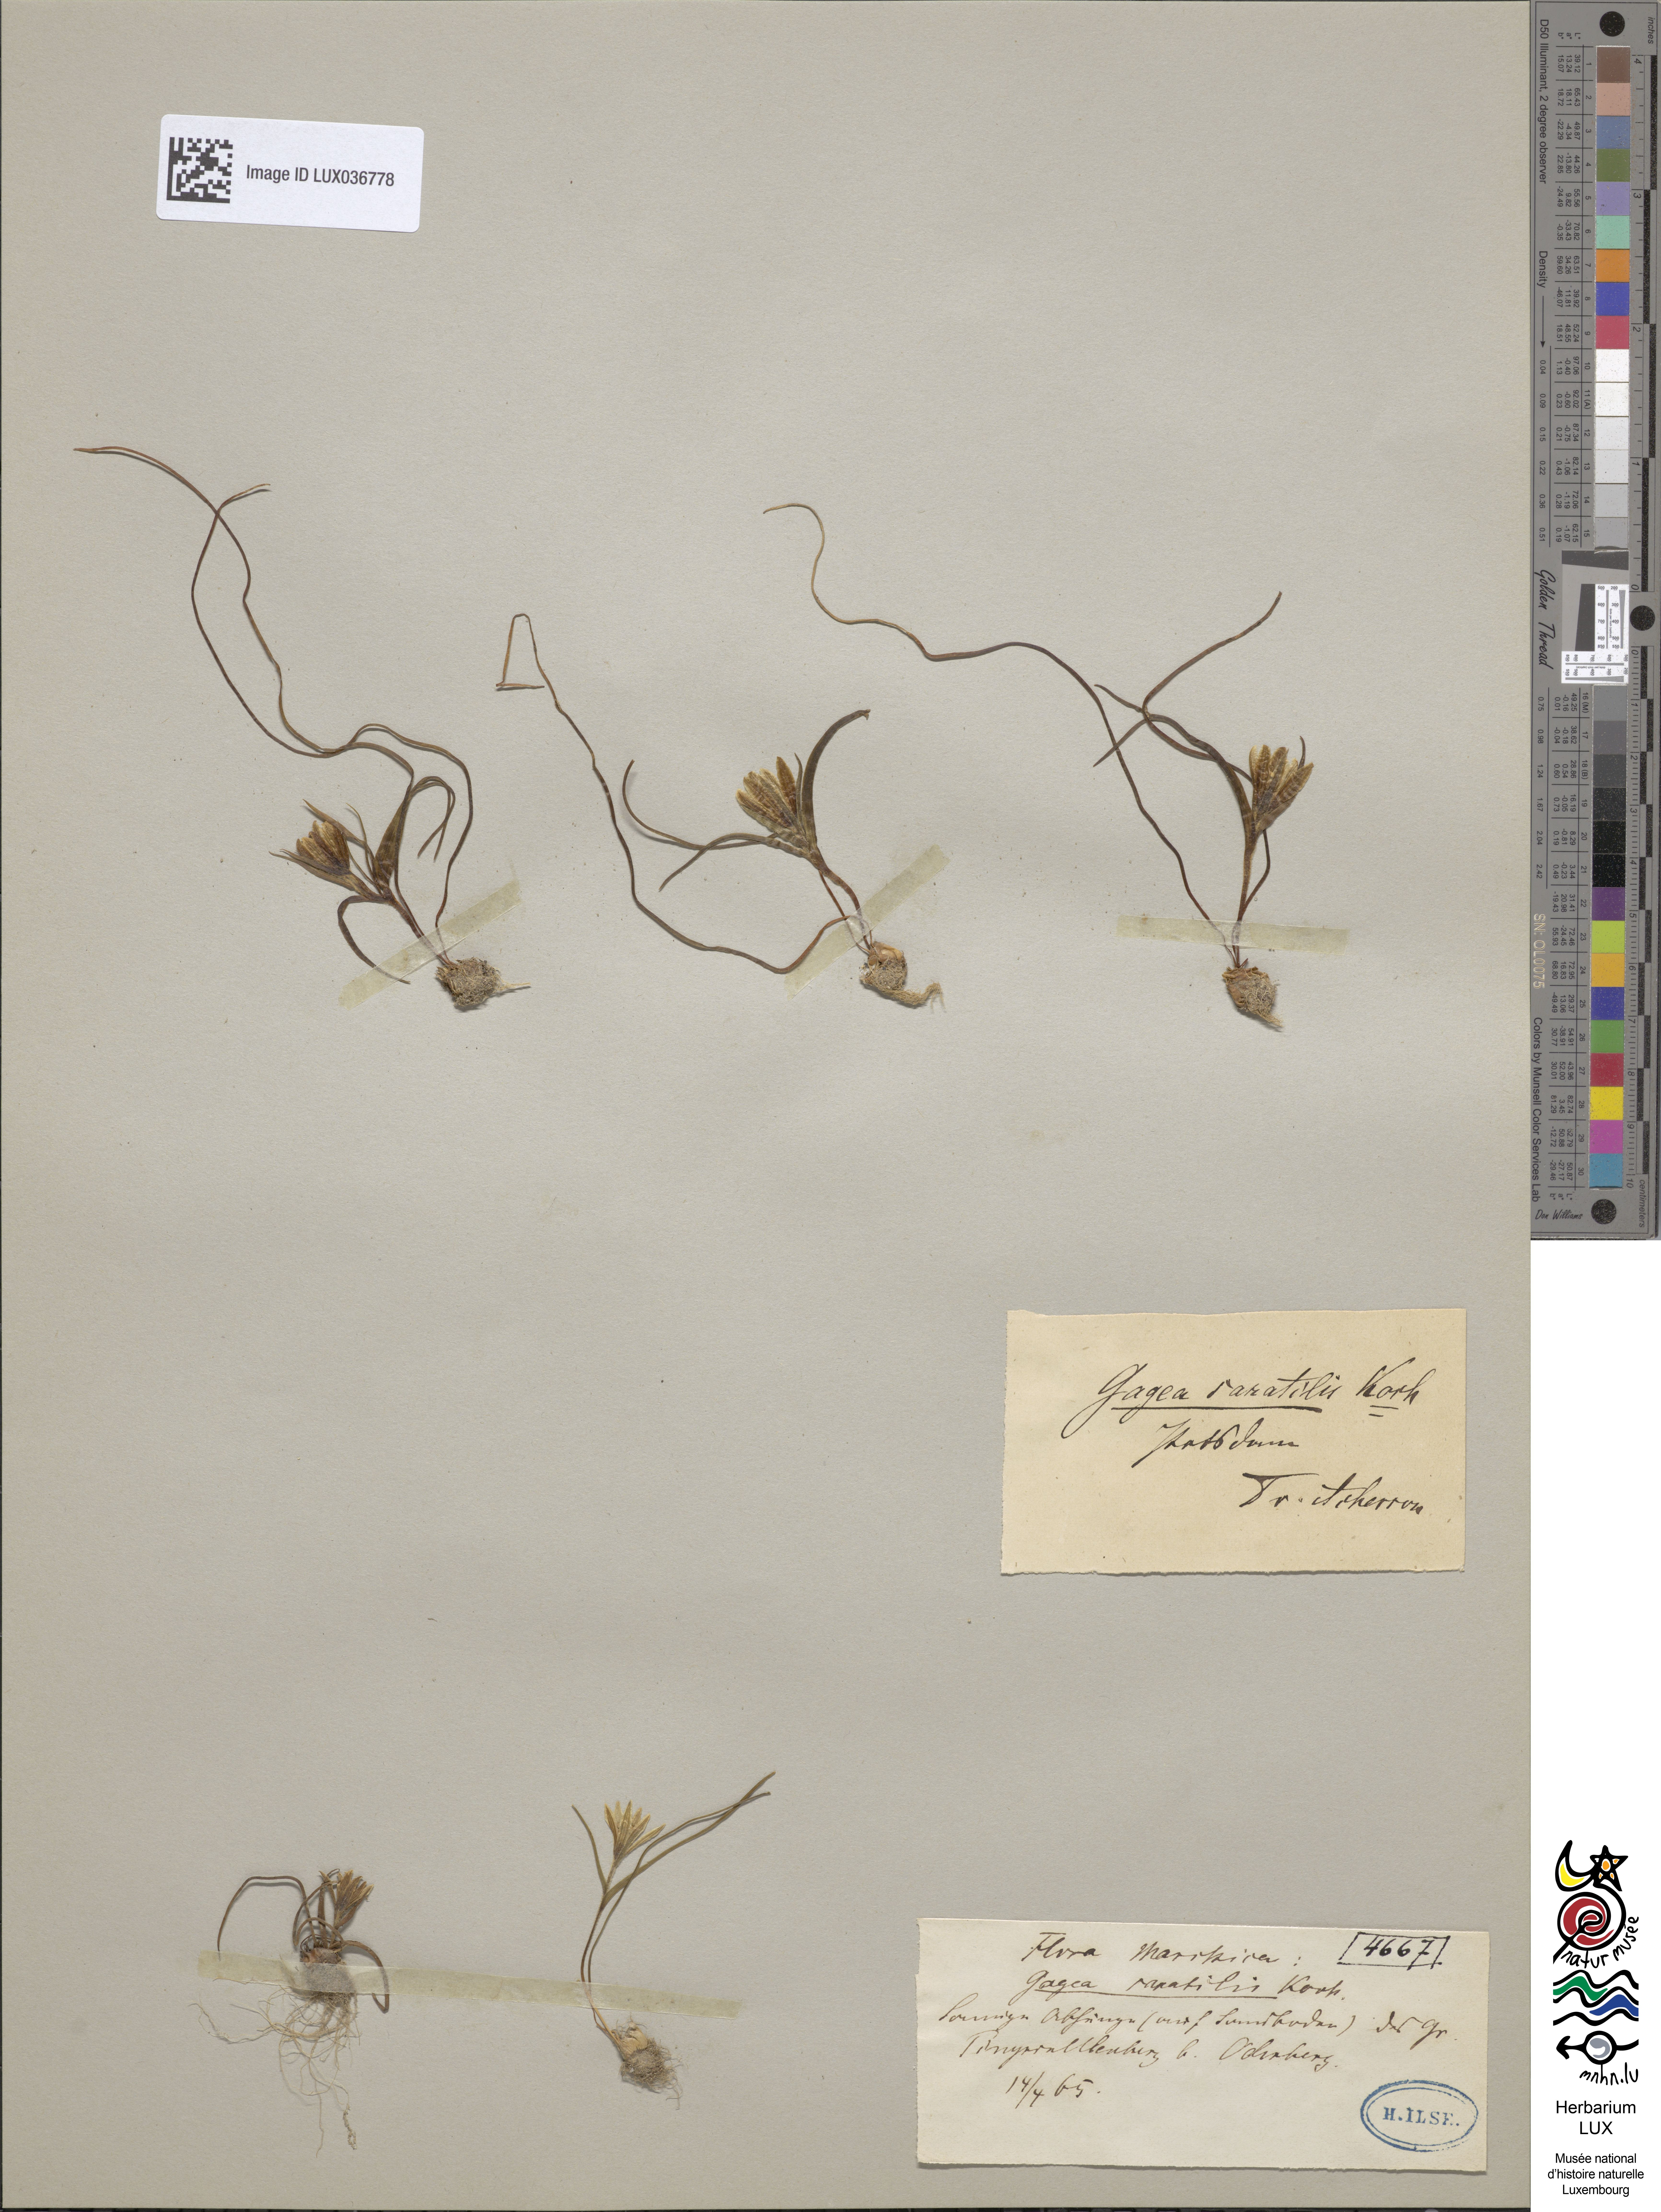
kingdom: Plantae
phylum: Tracheophyta
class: Liliopsida
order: Liliales
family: Liliaceae
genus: Gagea
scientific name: Gagea bohemica
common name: Early star-of-bethlehem
